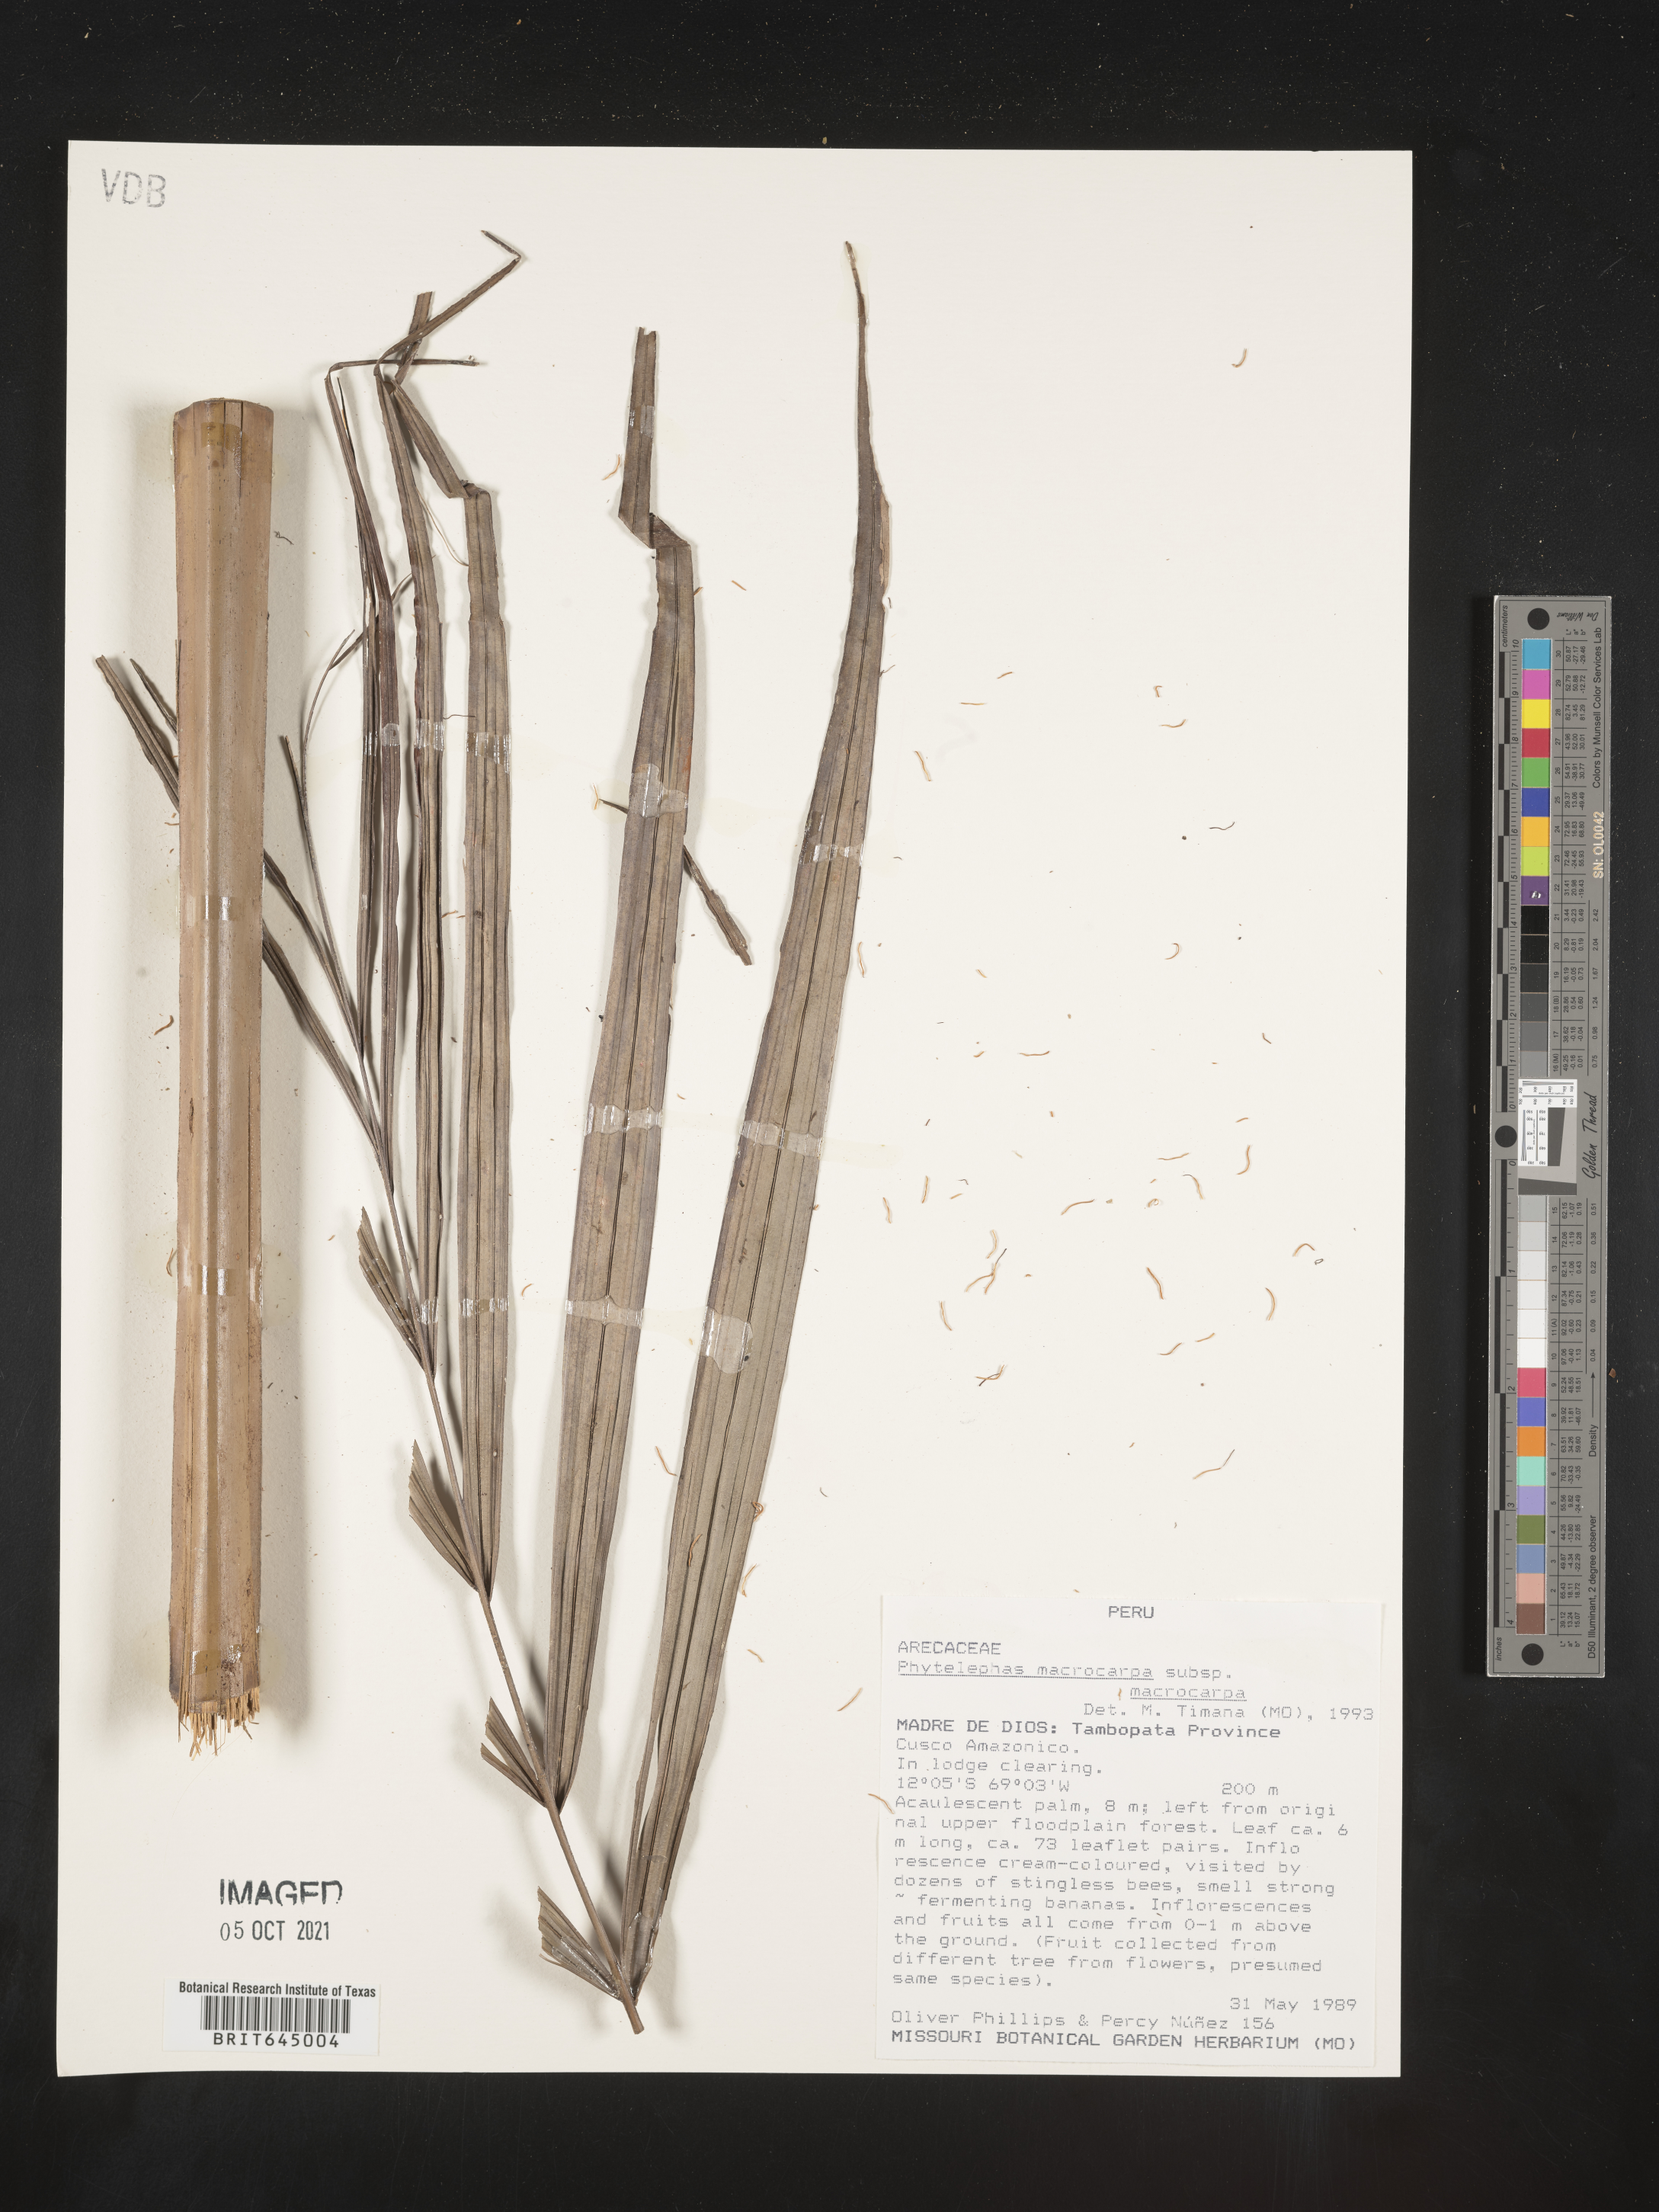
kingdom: Plantae
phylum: Tracheophyta
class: Liliopsida
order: Arecales
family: Arecaceae
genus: Phytelephas
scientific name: Phytelephas macrocarpa
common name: Ivory palm
